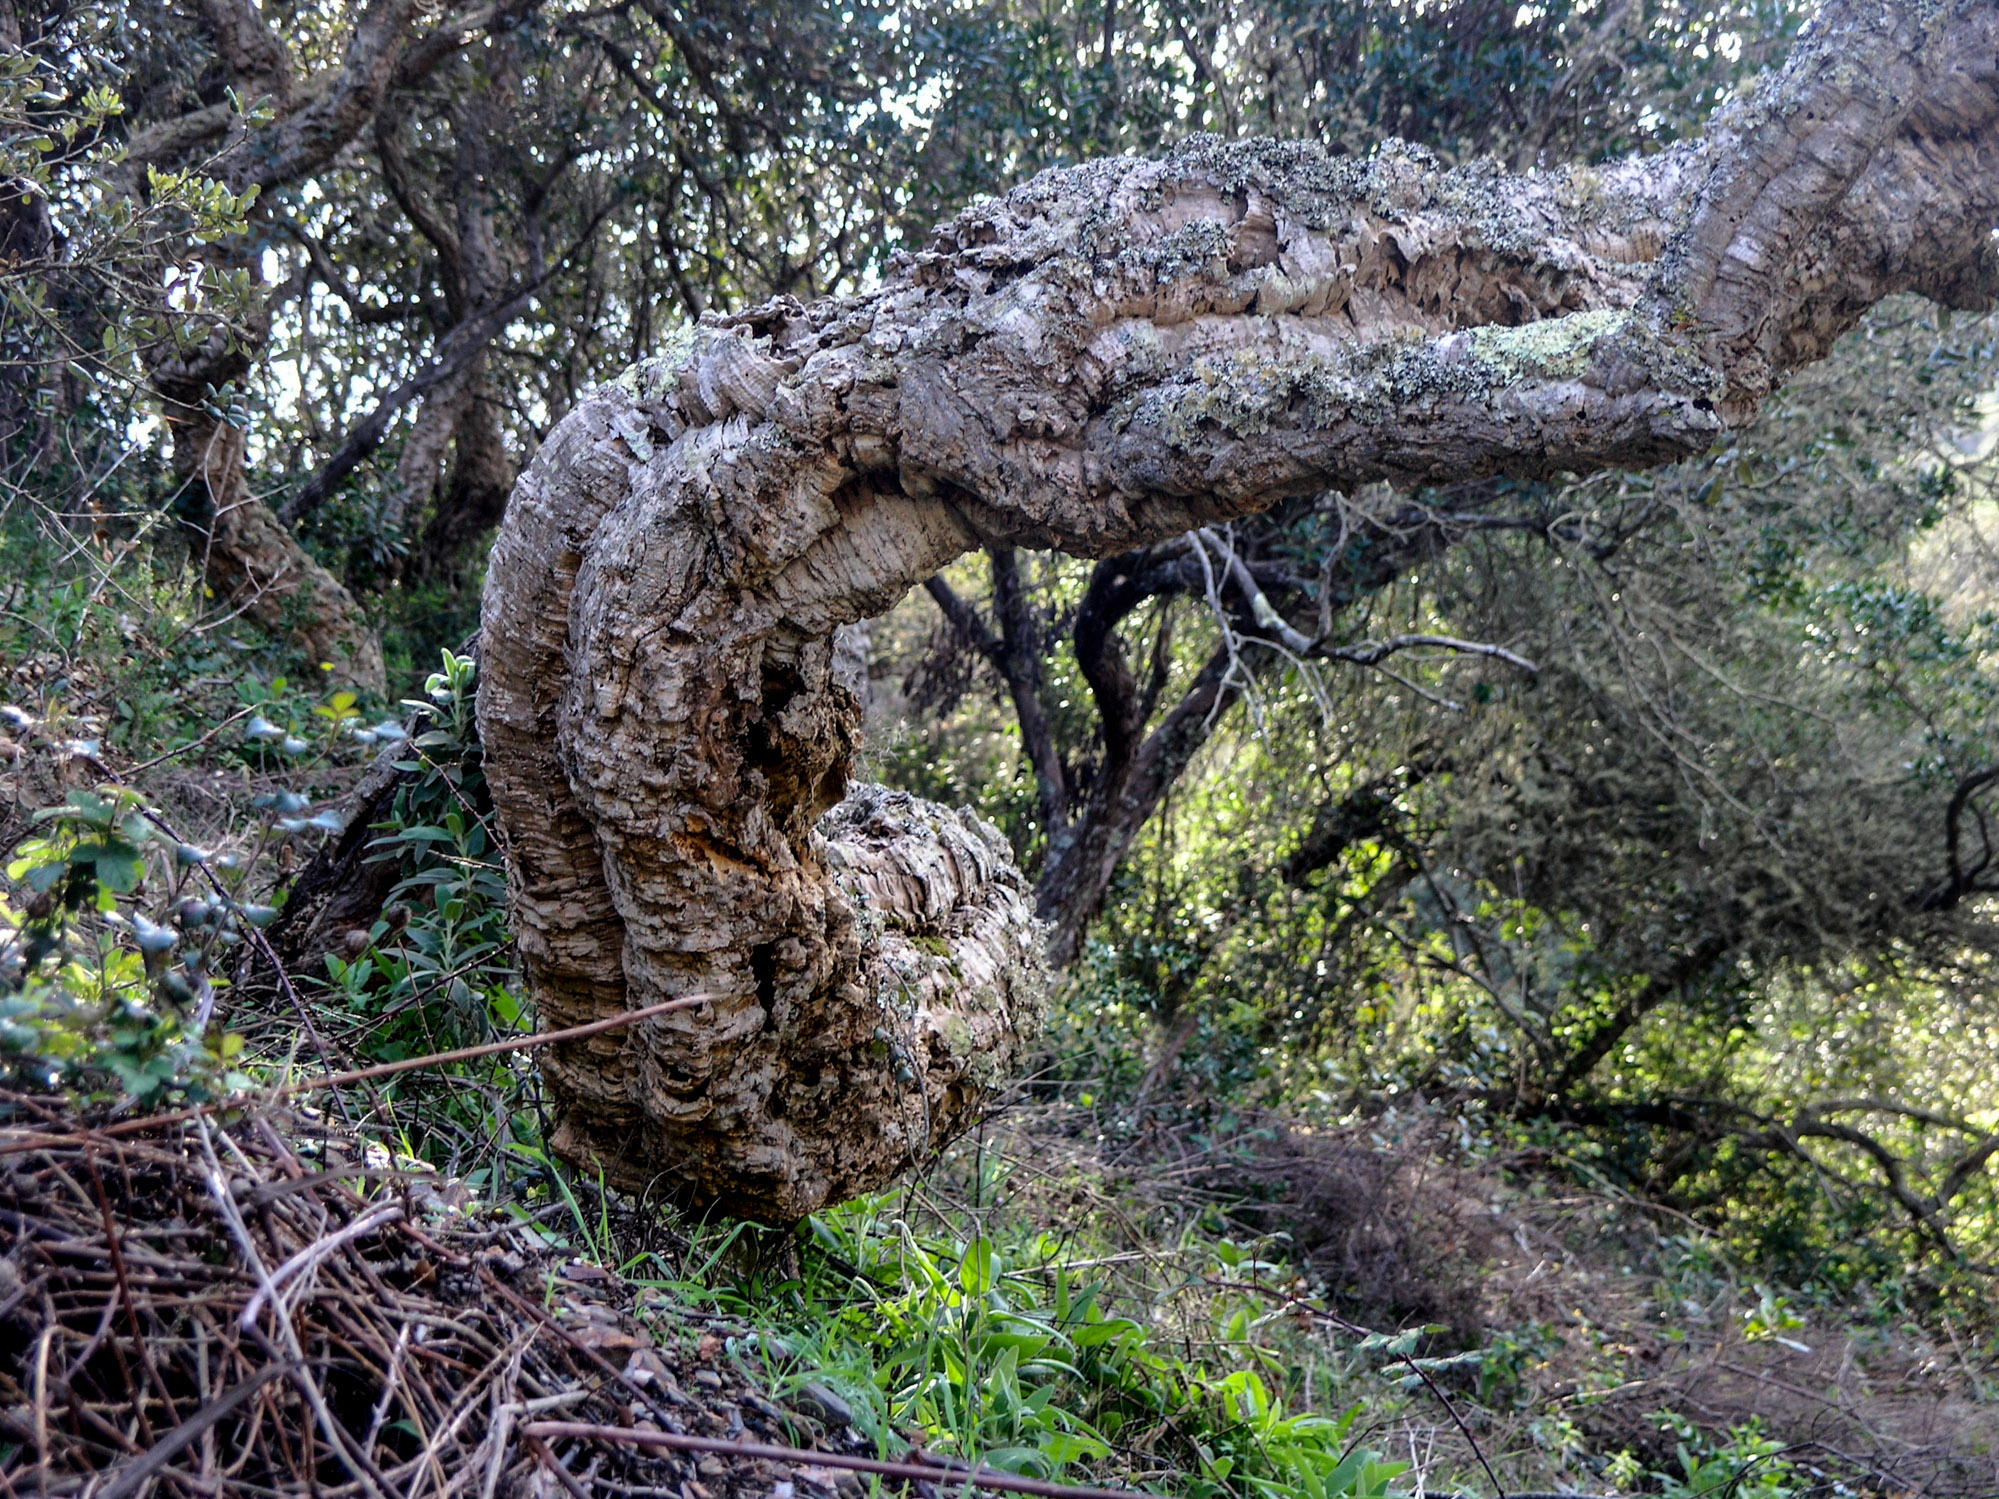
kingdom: Plantae
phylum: Tracheophyta
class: Magnoliopsida
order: Fagales
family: Fagaceae
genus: Quercus
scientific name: Quercus suber
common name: Cork oak
